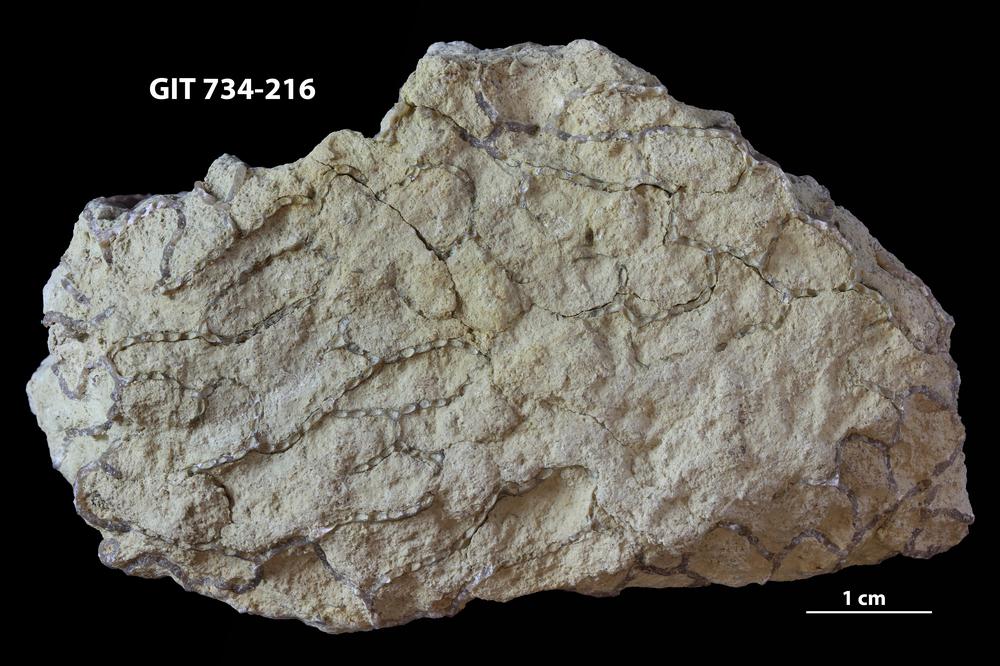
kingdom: Animalia
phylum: Cnidaria
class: Anthozoa
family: Cateniporidae
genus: Catenipora
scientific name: Catenipora
